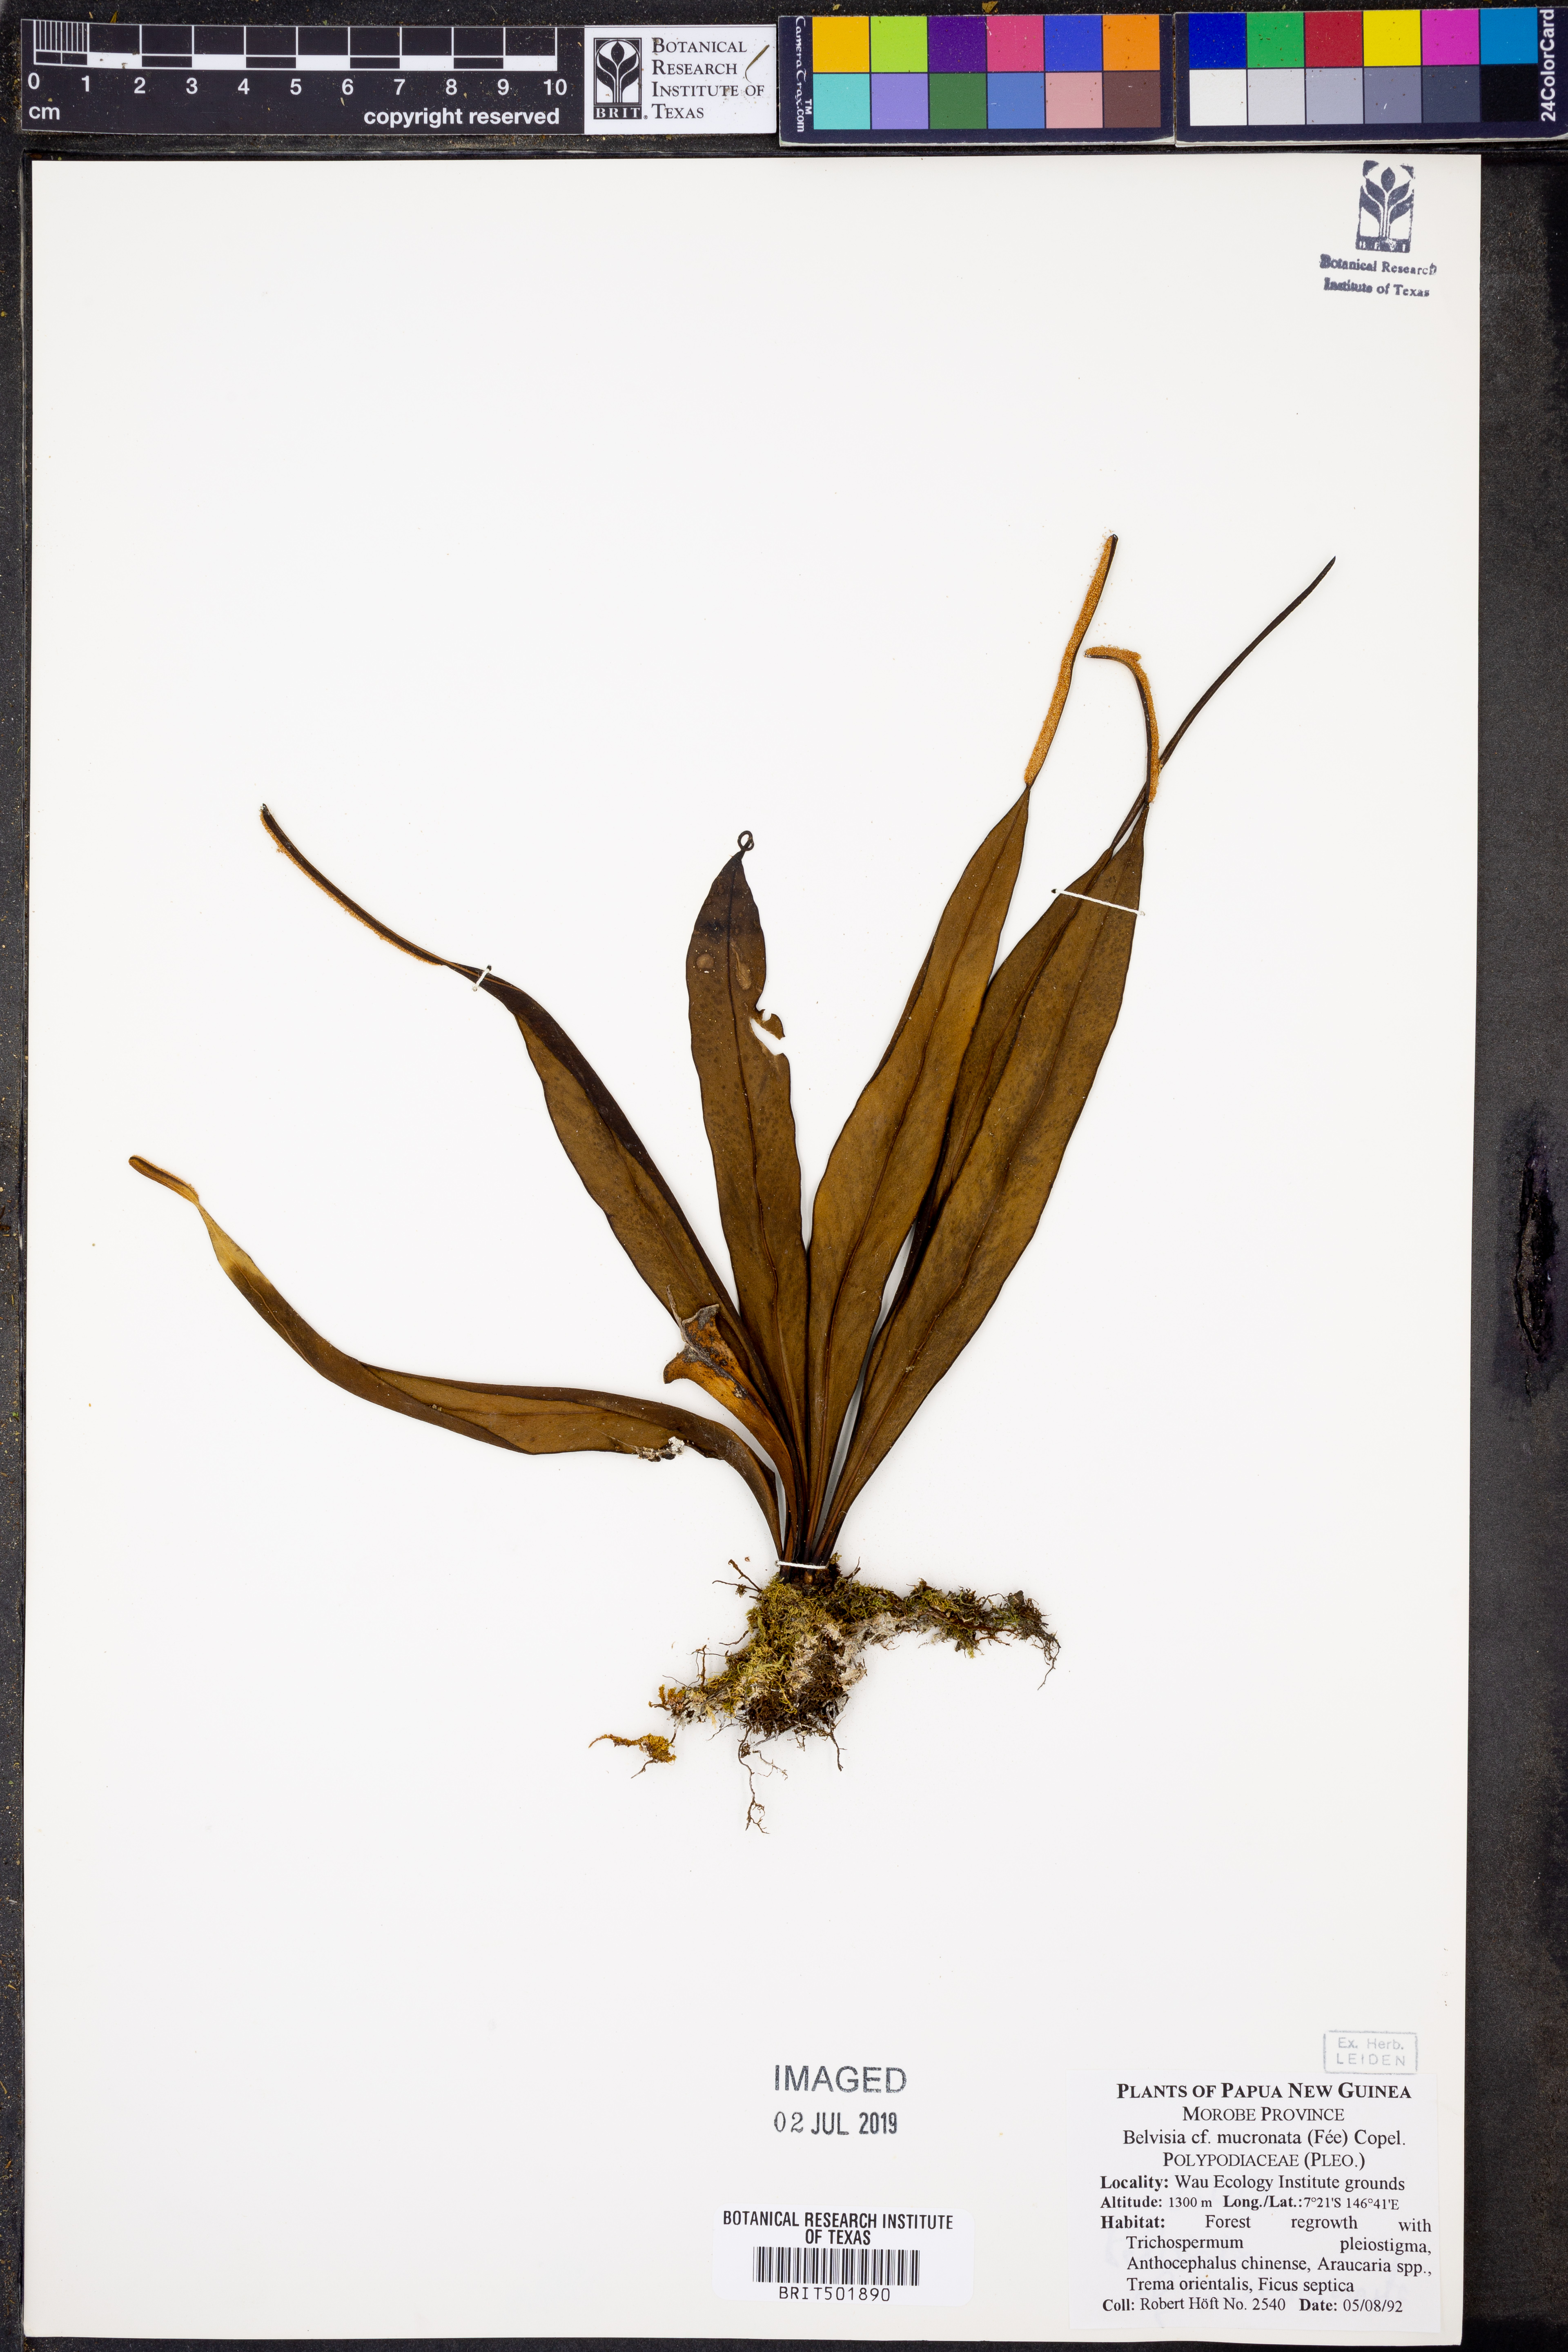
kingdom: Plantae
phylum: Tracheophyta
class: Polypodiopsida
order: Polypodiales
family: Polypodiaceae
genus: Lepisorus
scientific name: Lepisorus mucronatus
